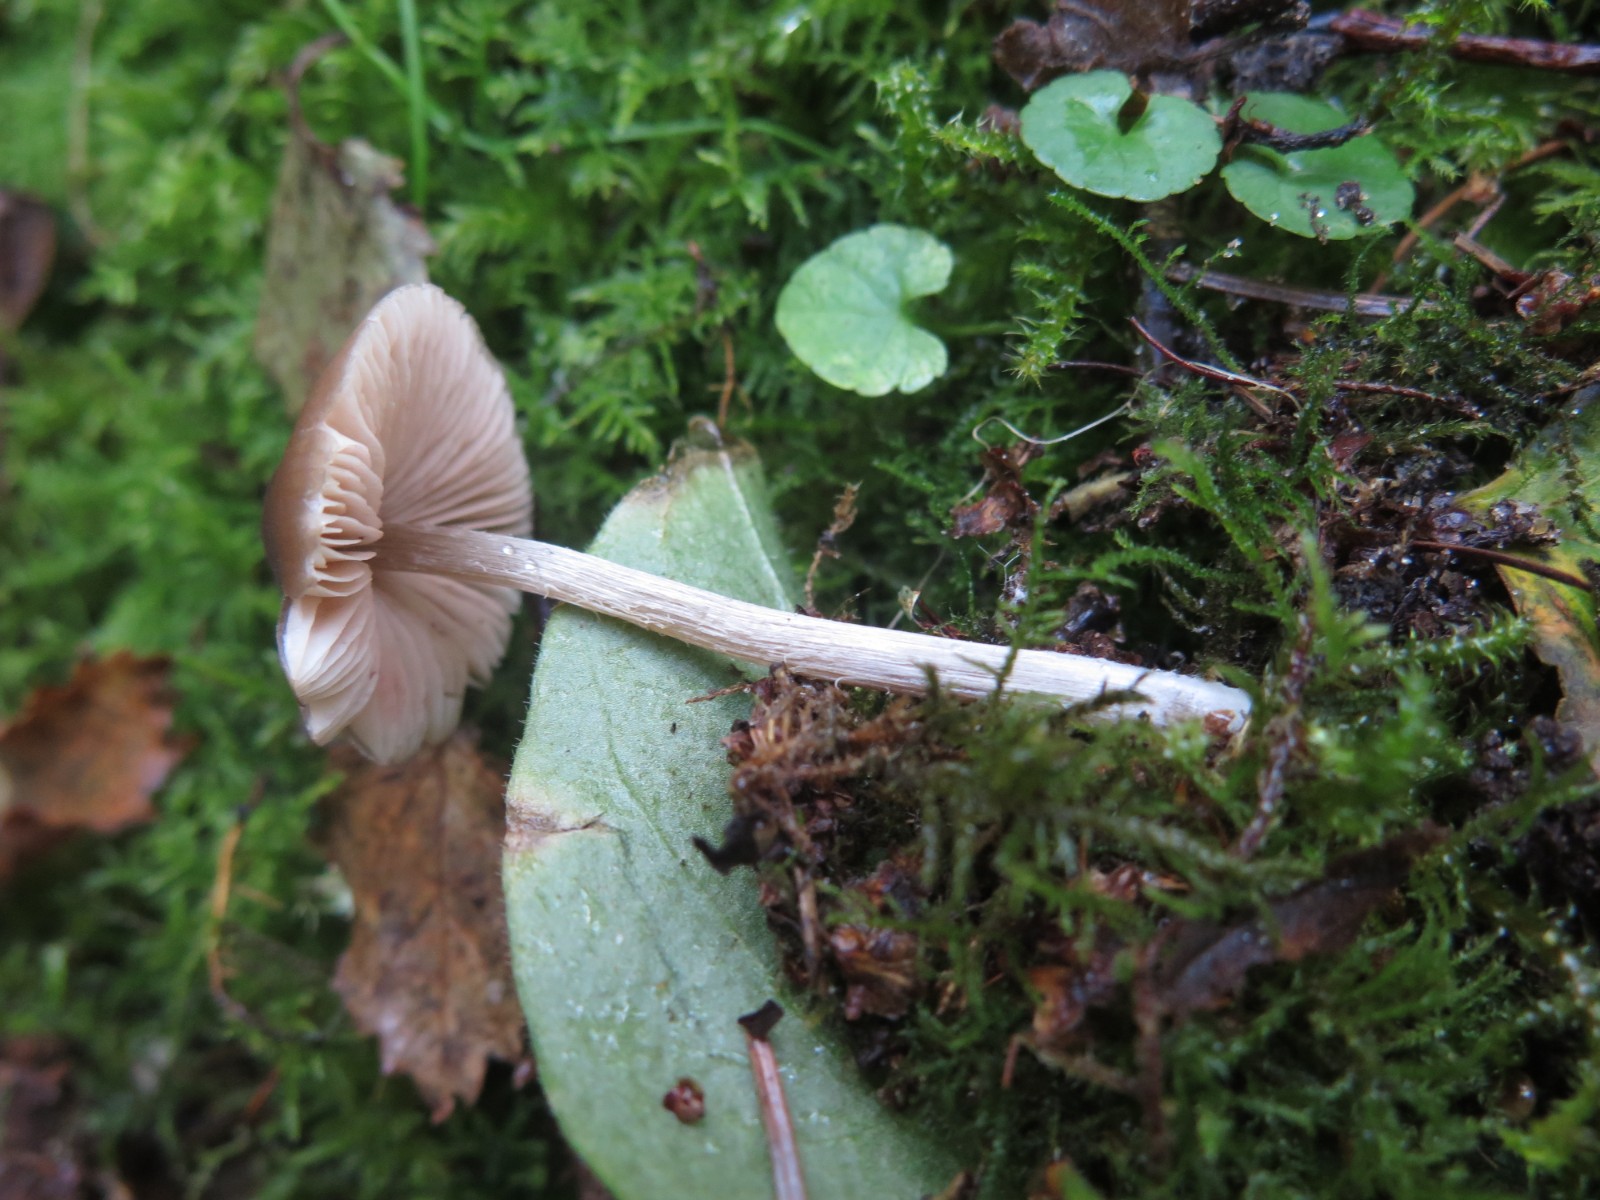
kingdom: Fungi
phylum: Basidiomycota
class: Agaricomycetes
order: Agaricales
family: Entolomataceae
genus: Entoloma
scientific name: Entoloma conferendum
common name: stjernesporet rødblad
